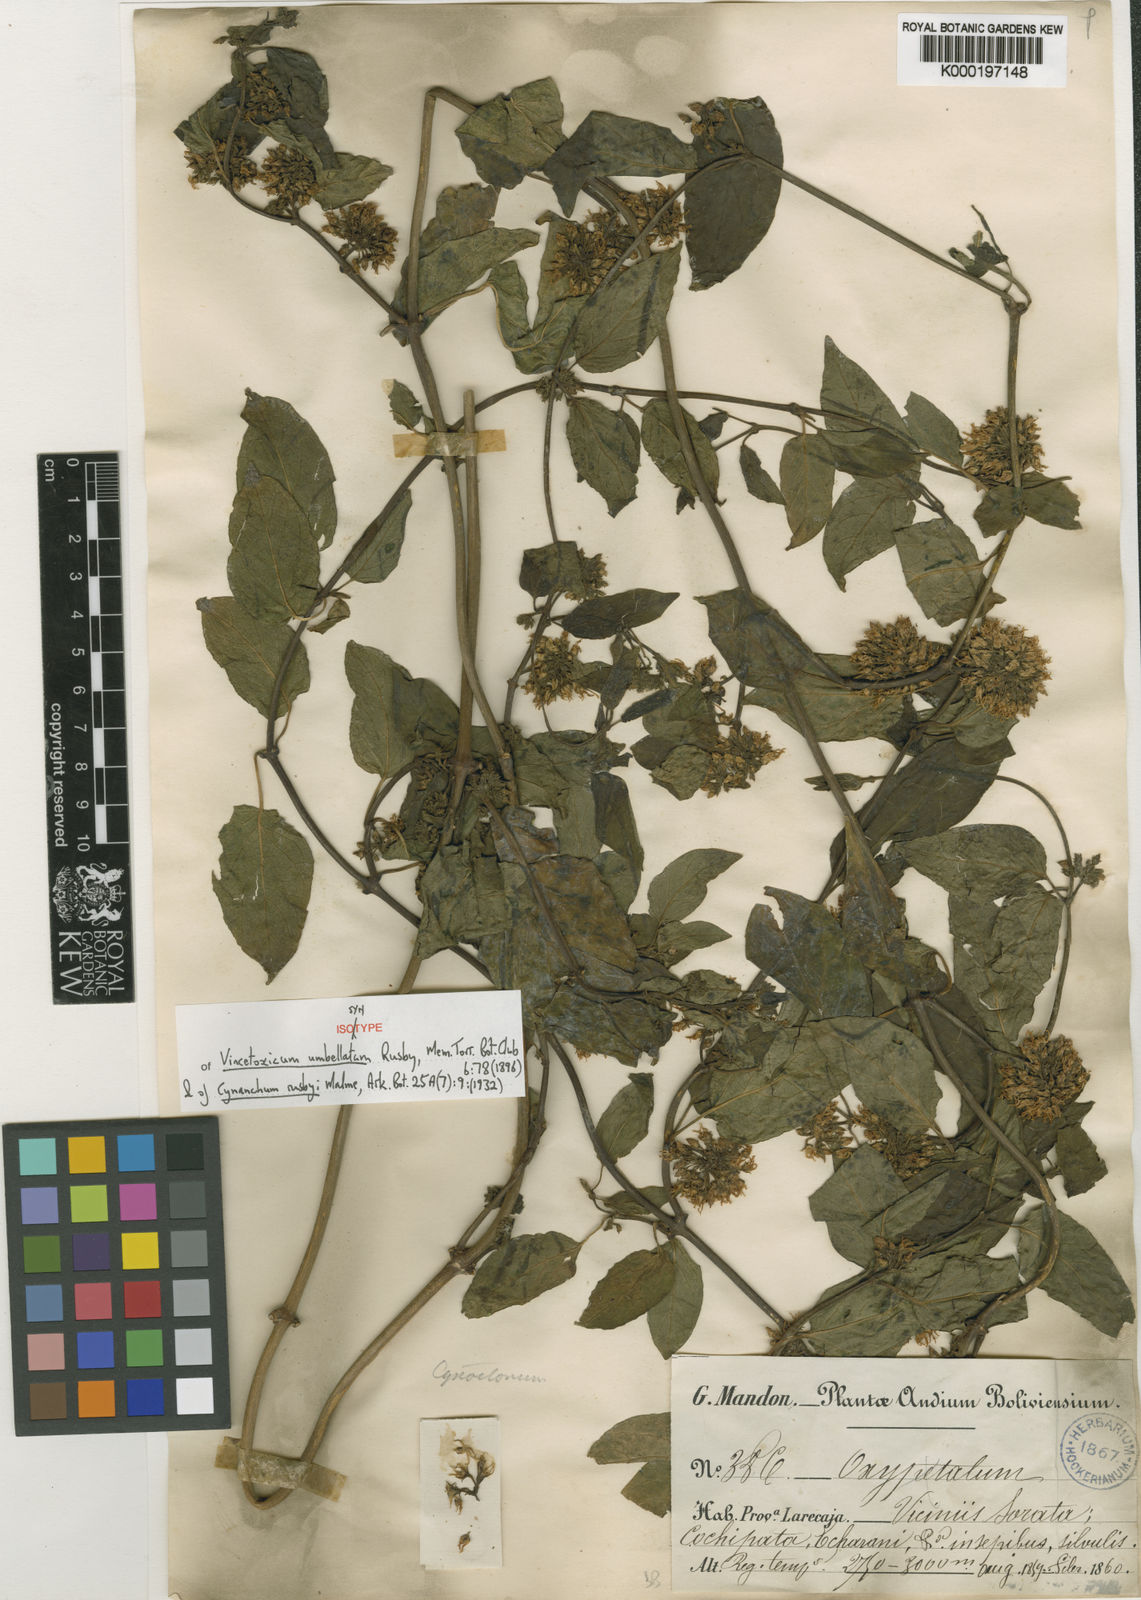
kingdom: Plantae
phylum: Tracheophyta
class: Magnoliopsida
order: Gentianales
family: Apocynaceae
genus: Jobinia
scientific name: Jobinia umbellata
